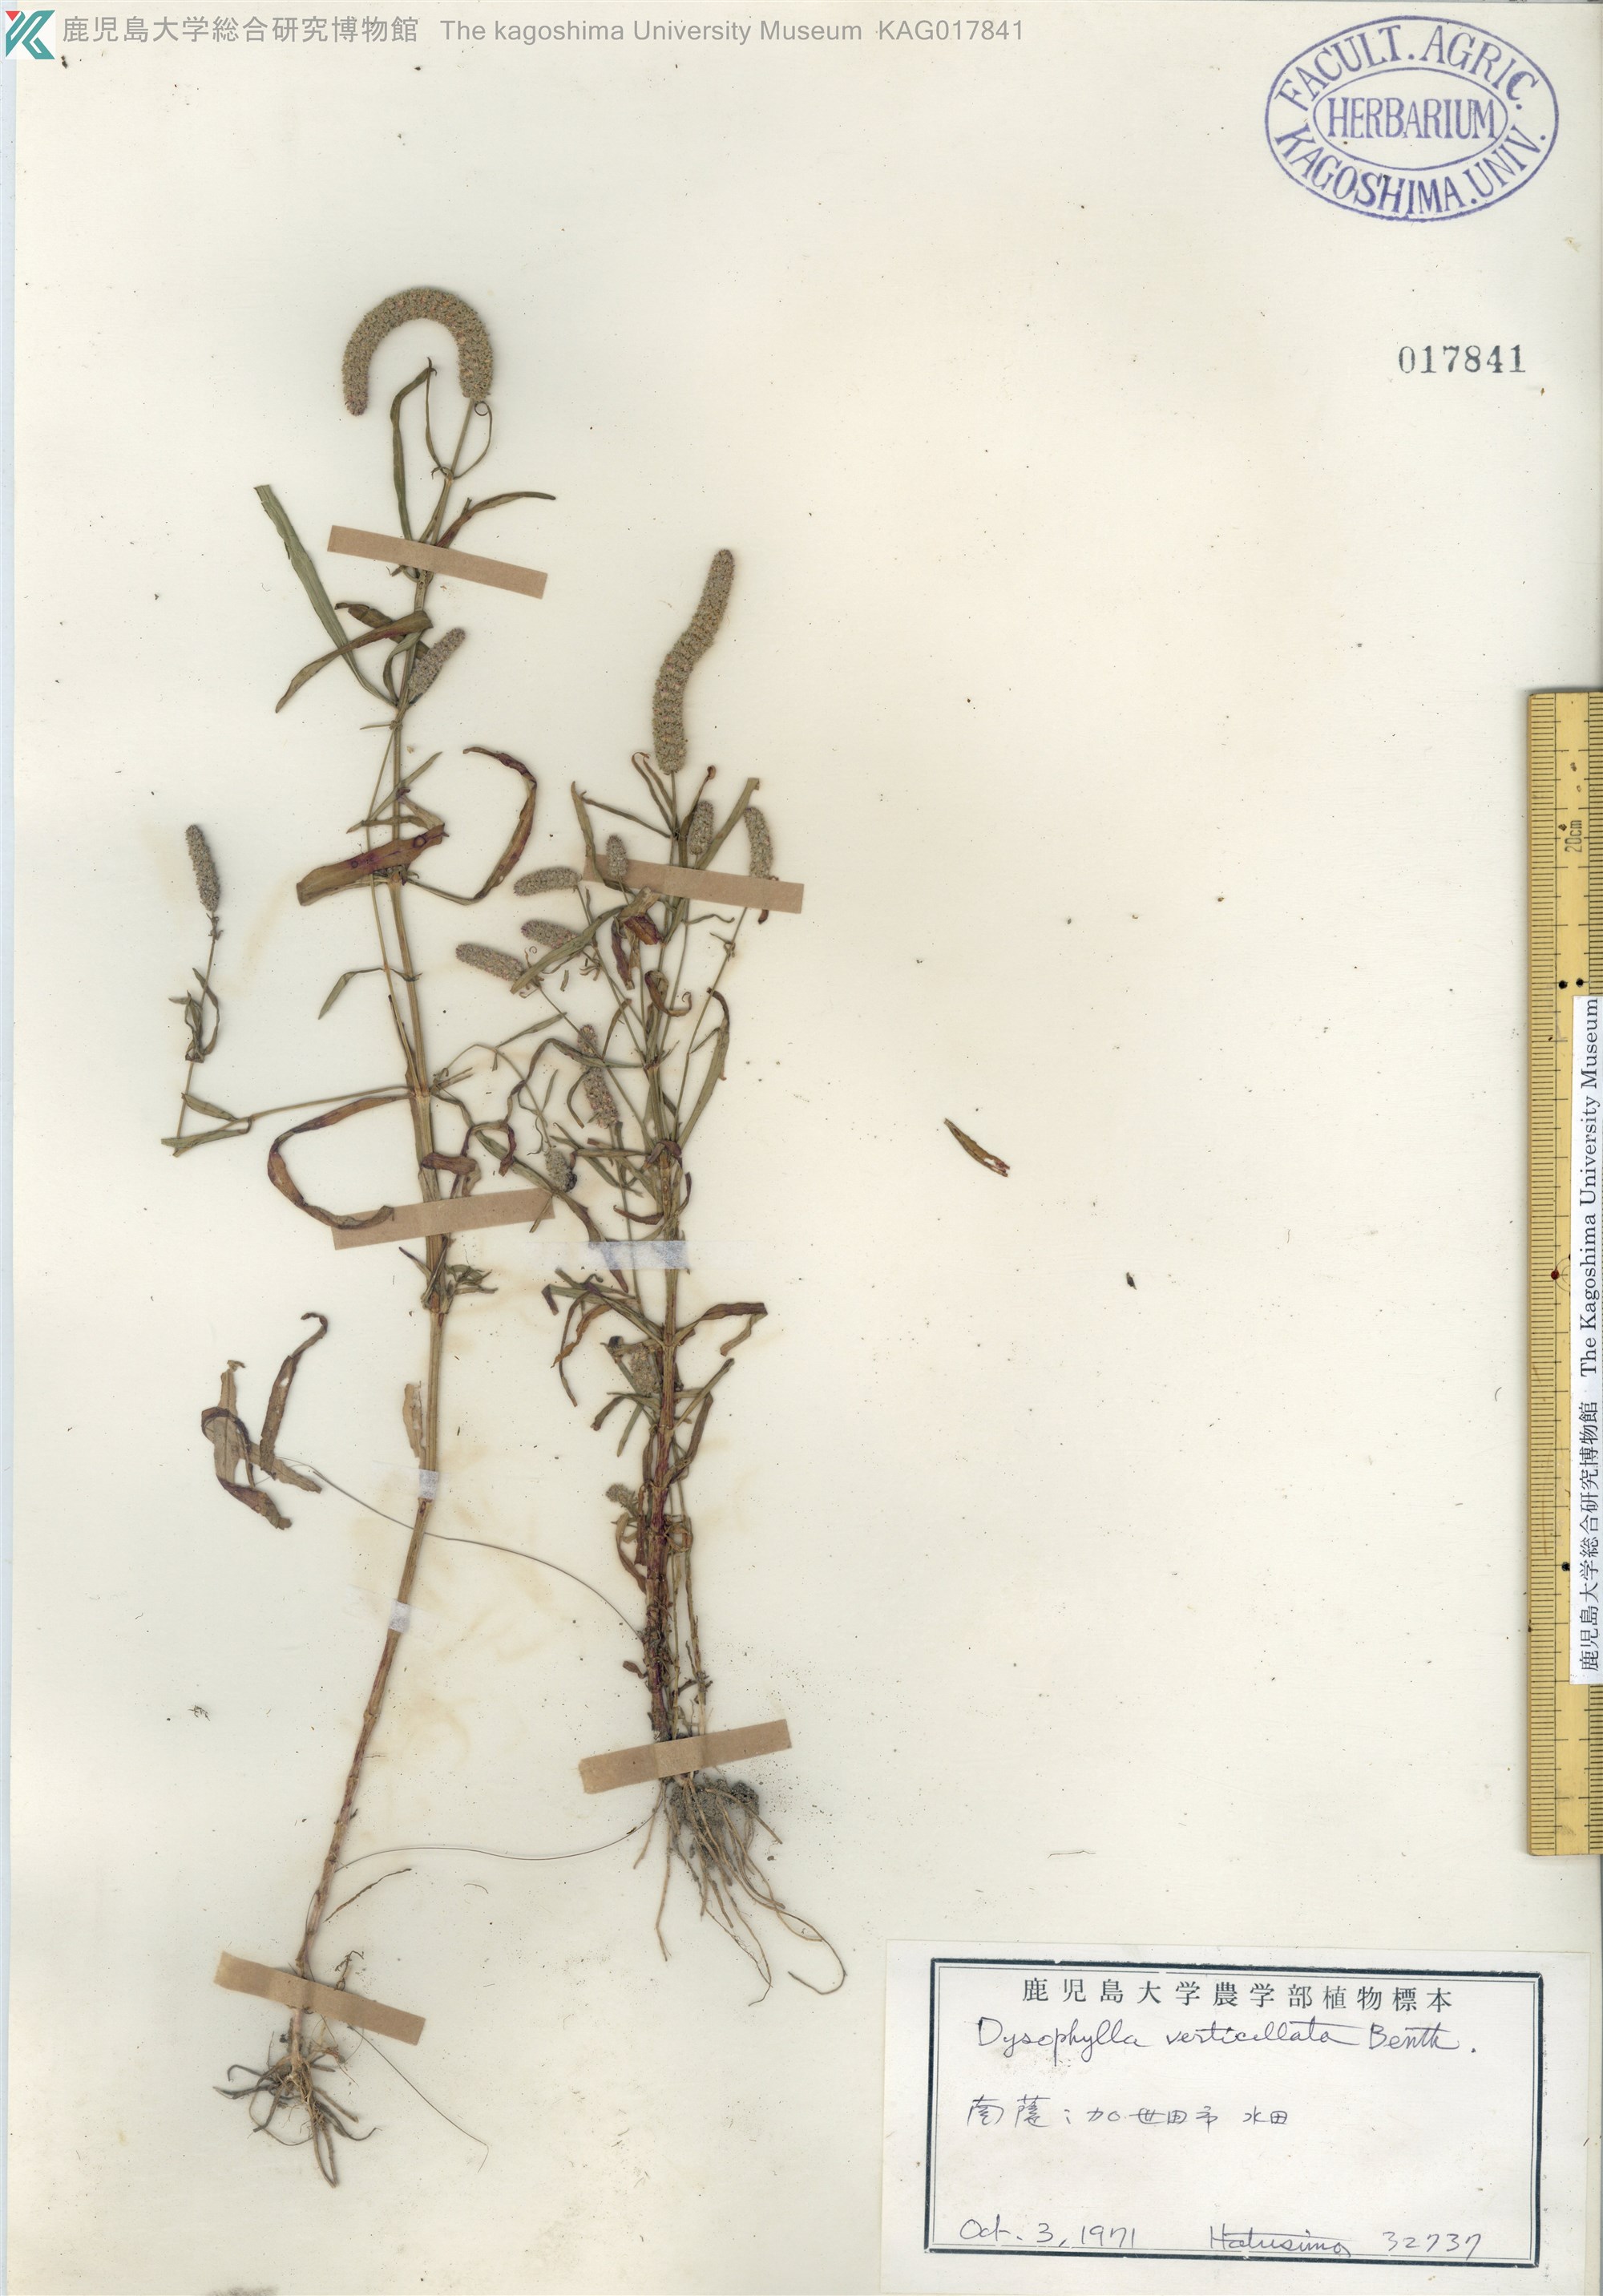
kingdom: Plantae
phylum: Tracheophyta
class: Magnoliopsida
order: Lamiales
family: Lamiaceae
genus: Pogostemon
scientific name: Pogostemon stellatus
